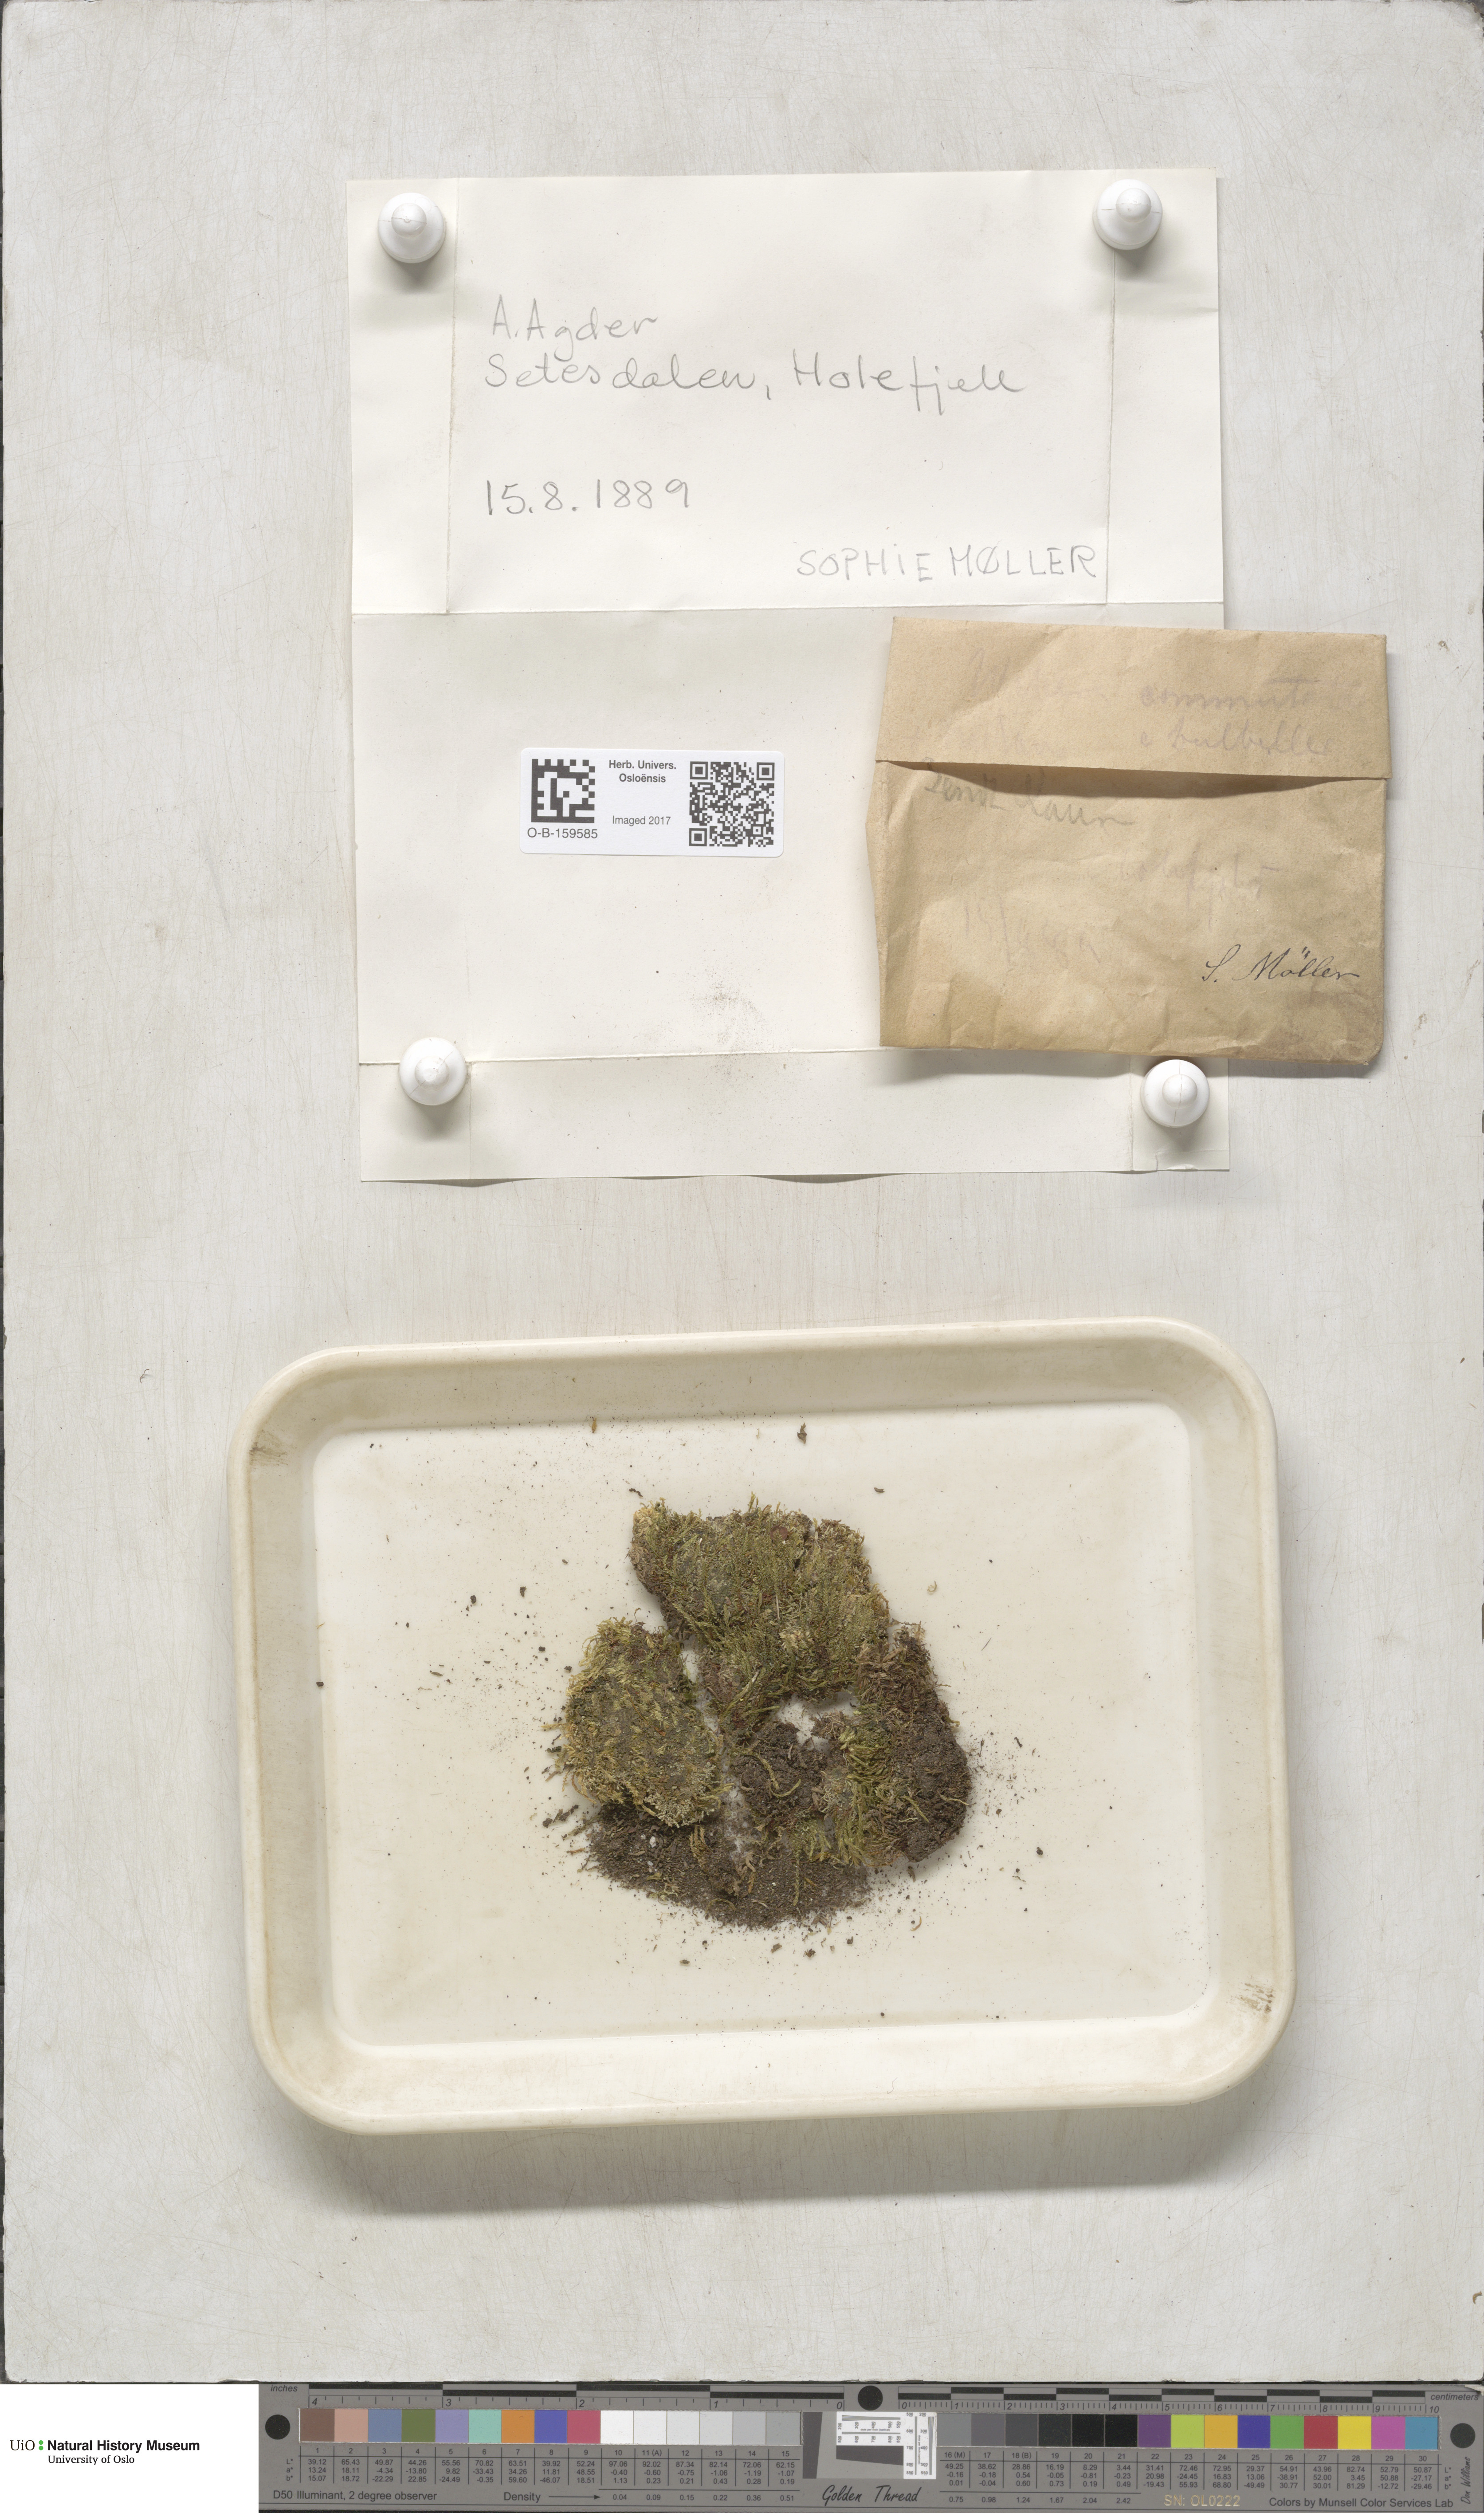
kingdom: Plantae
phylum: Bryophyta
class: Bryopsida
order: Bryales
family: Mniaceae
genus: Pohlia
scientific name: Pohlia drummondii
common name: Drummond's nodding moss
